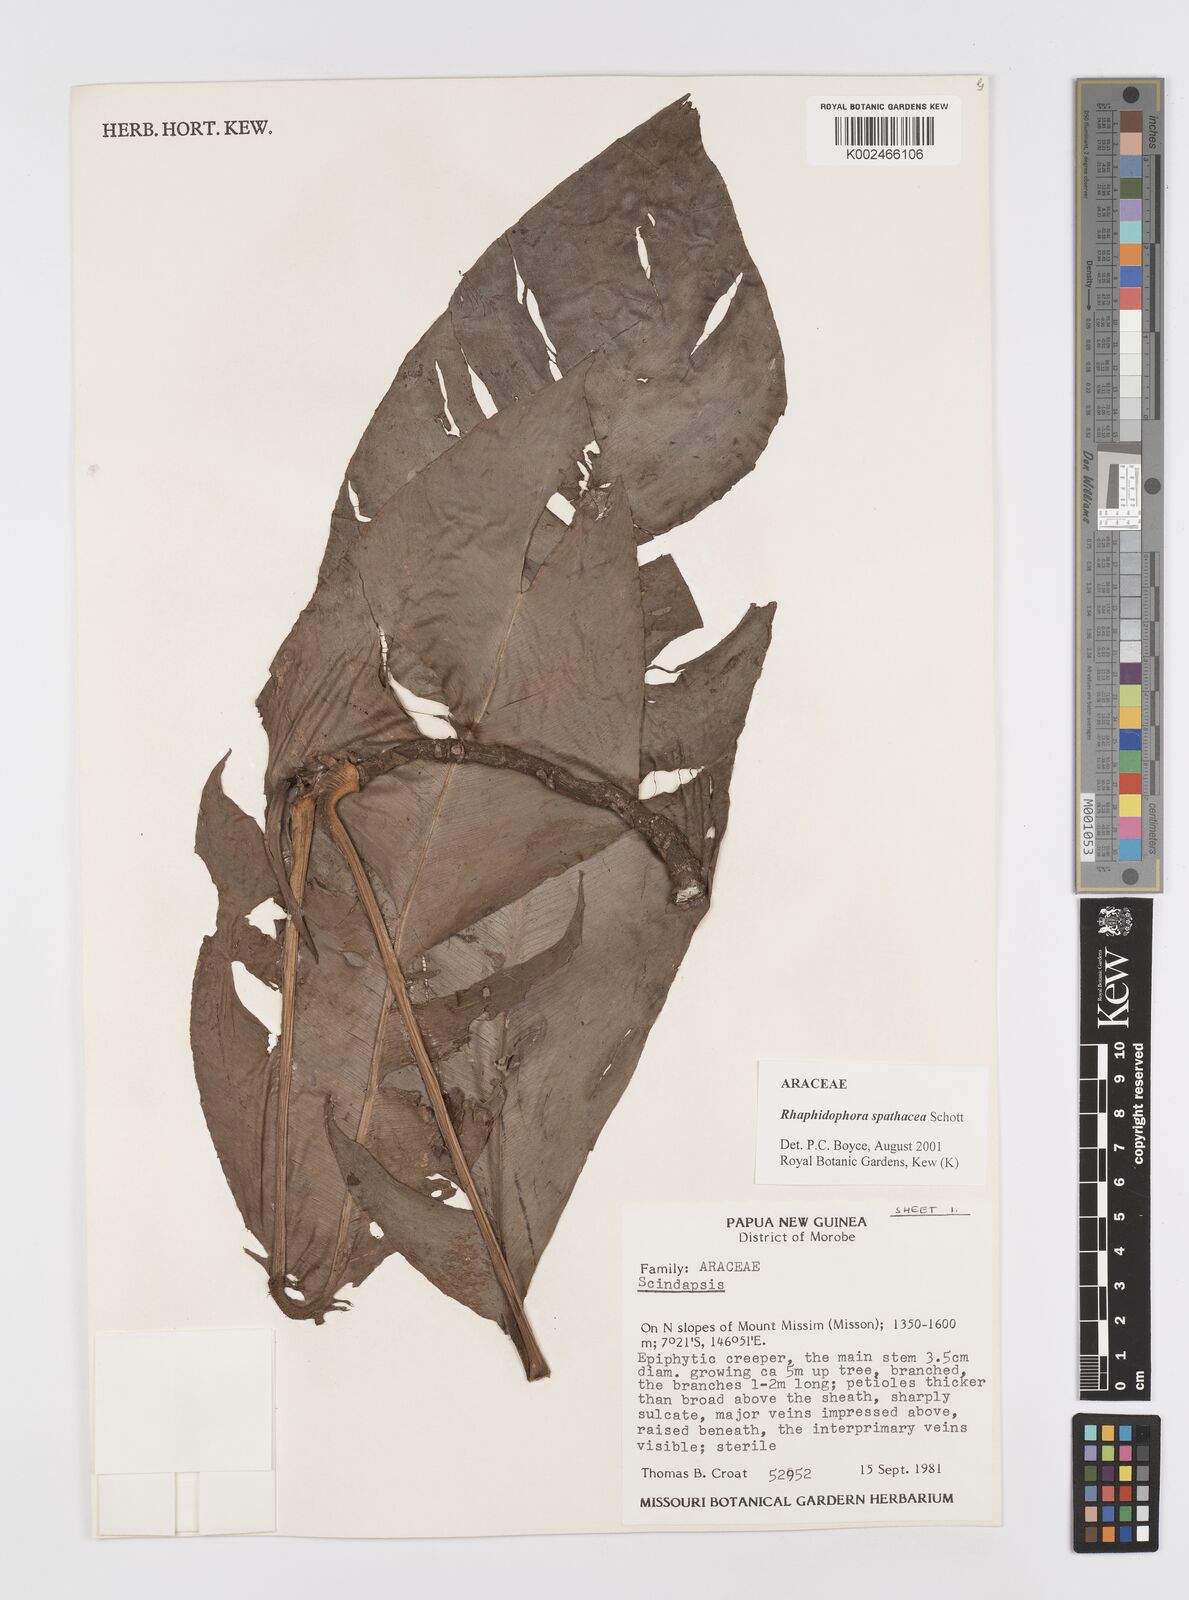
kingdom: Plantae
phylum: Tracheophyta
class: Liliopsida
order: Alismatales
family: Araceae
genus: Rhaphidophora
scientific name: Rhaphidophora spathacea
